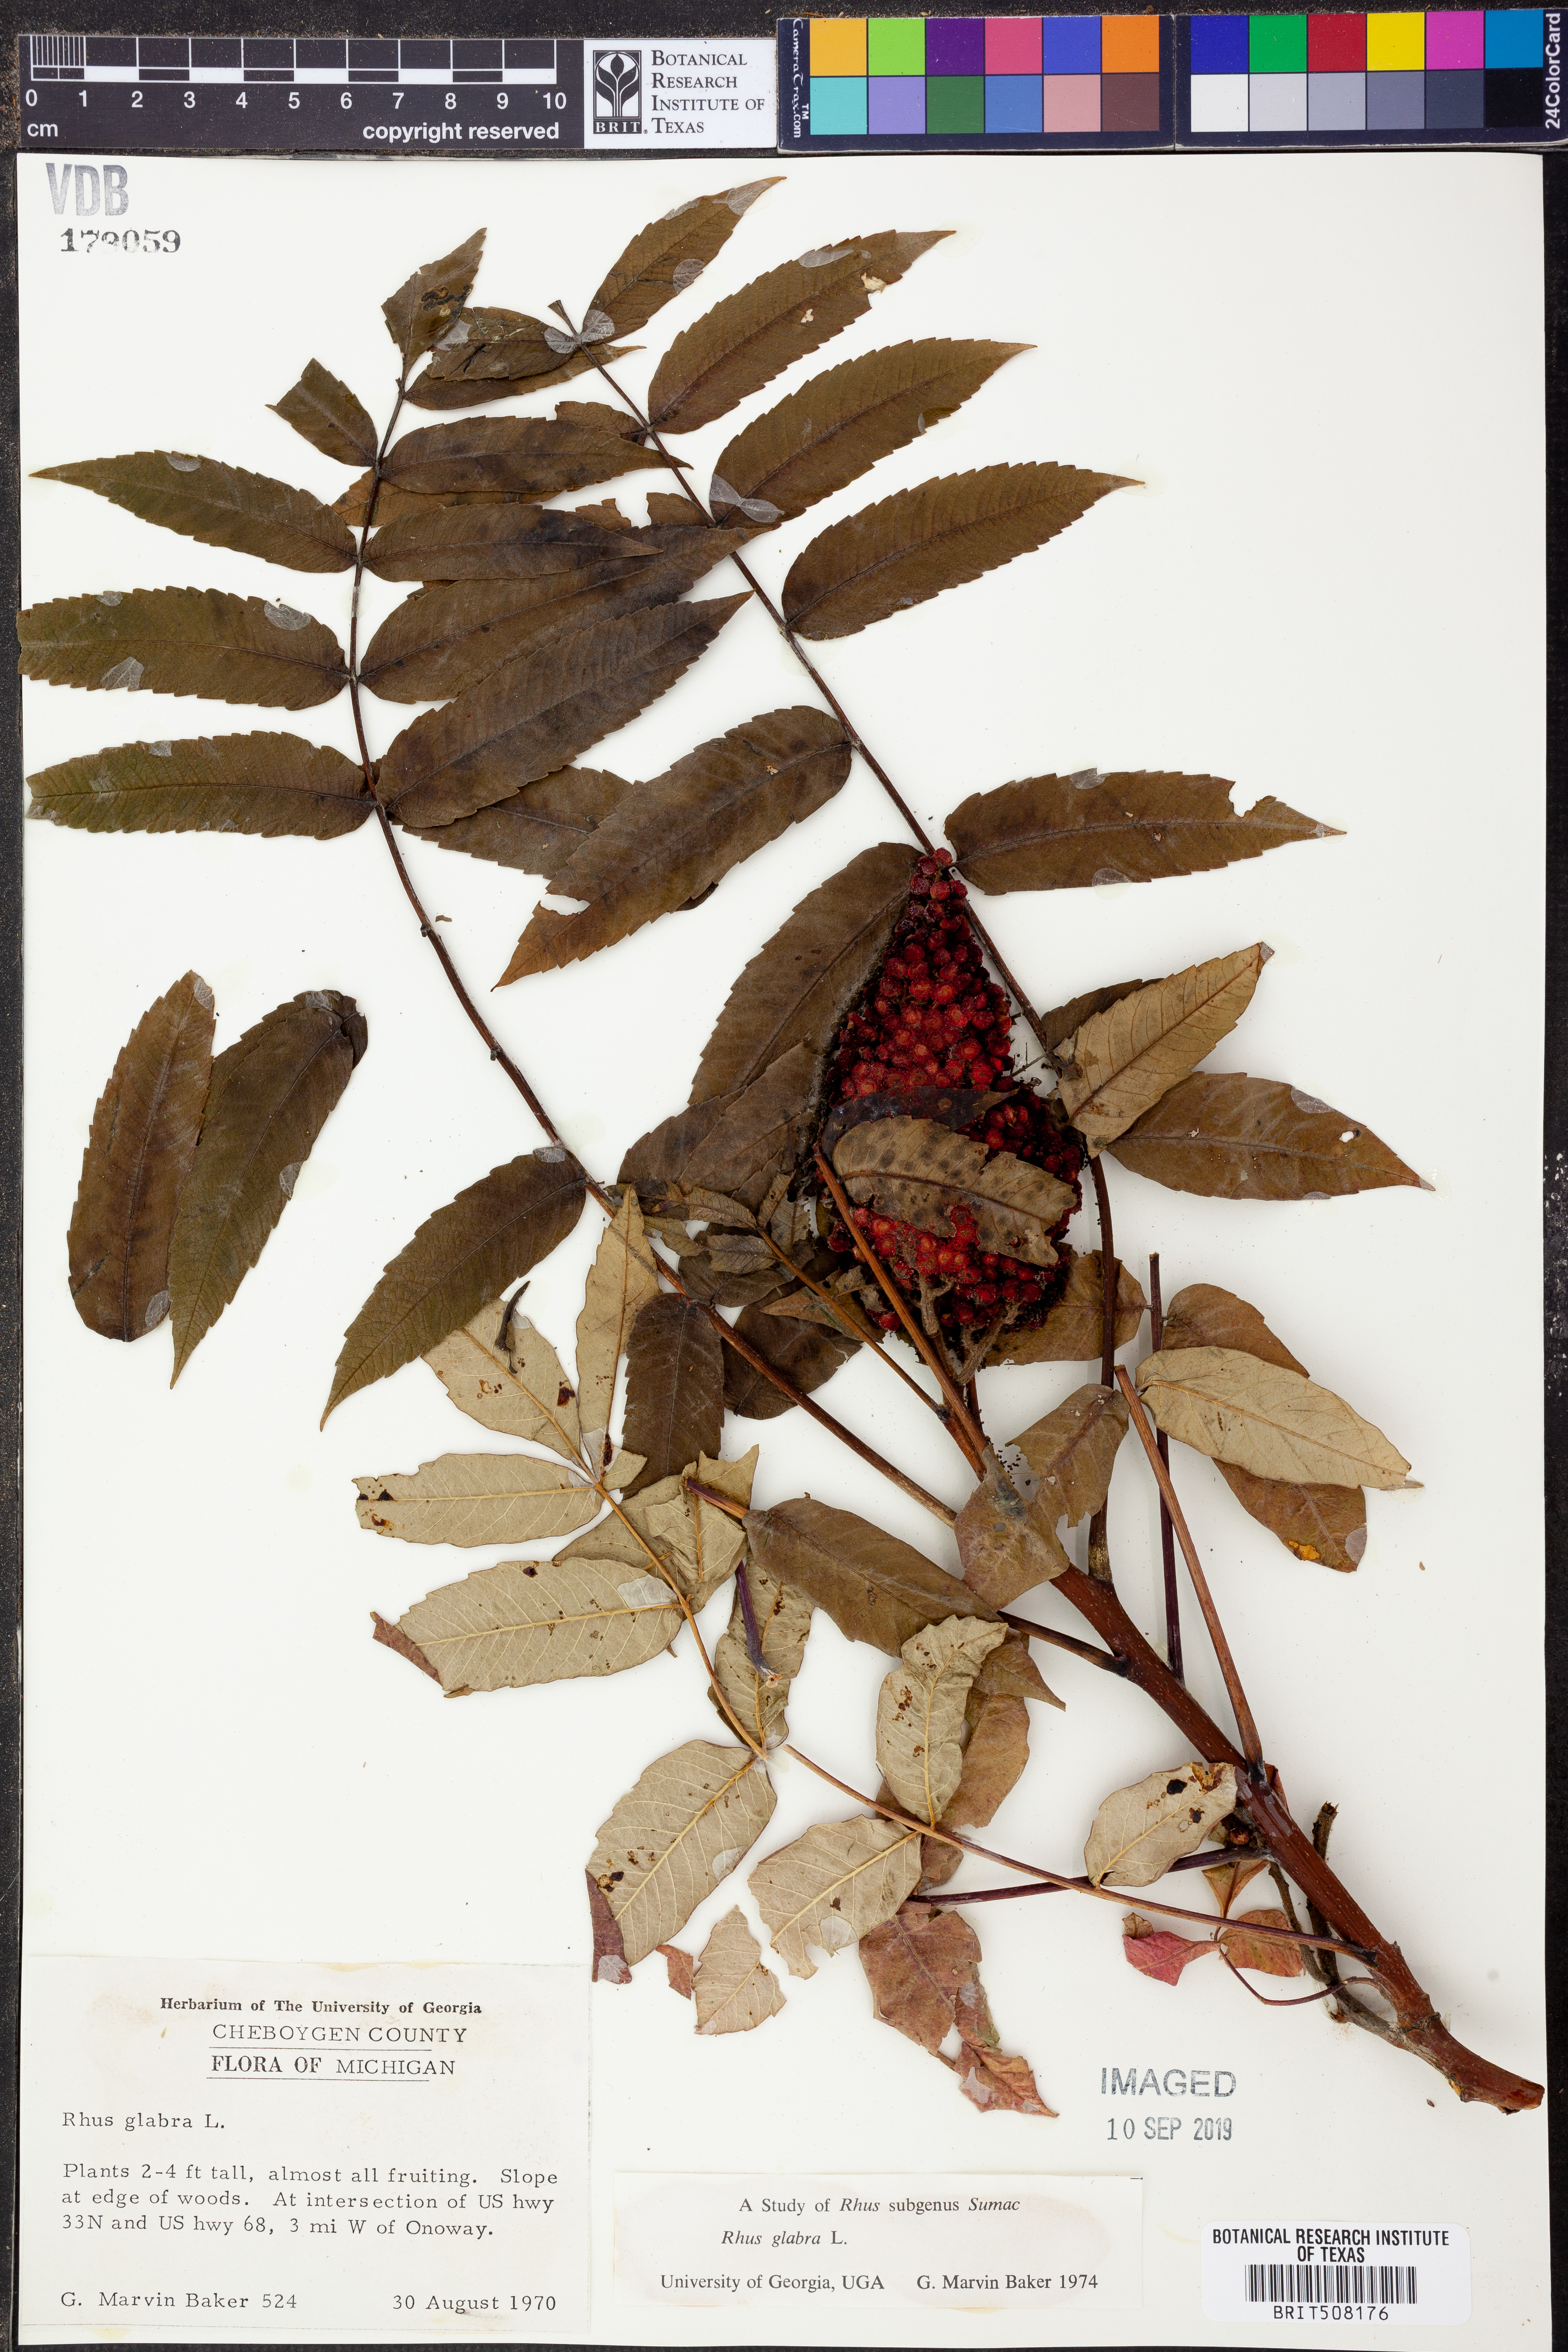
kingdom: Plantae
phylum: Tracheophyta
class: Magnoliopsida
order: Sapindales
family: Anacardiaceae
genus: Rhus
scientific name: Rhus glabra
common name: Scarlet sumac
